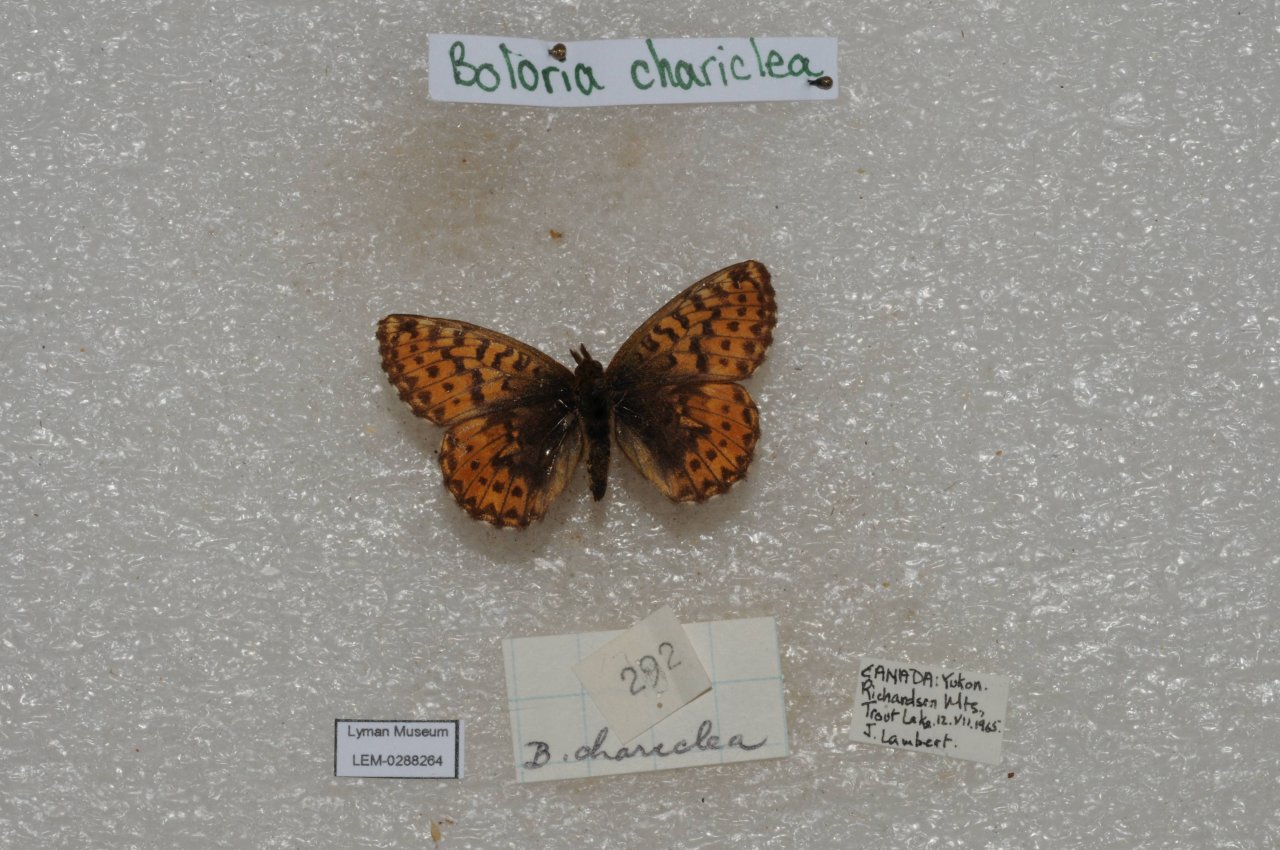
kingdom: Animalia
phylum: Arthropoda
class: Insecta
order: Lepidoptera
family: Nymphalidae
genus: Boloria
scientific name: Boloria chariclea
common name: Arctic Fritillary
